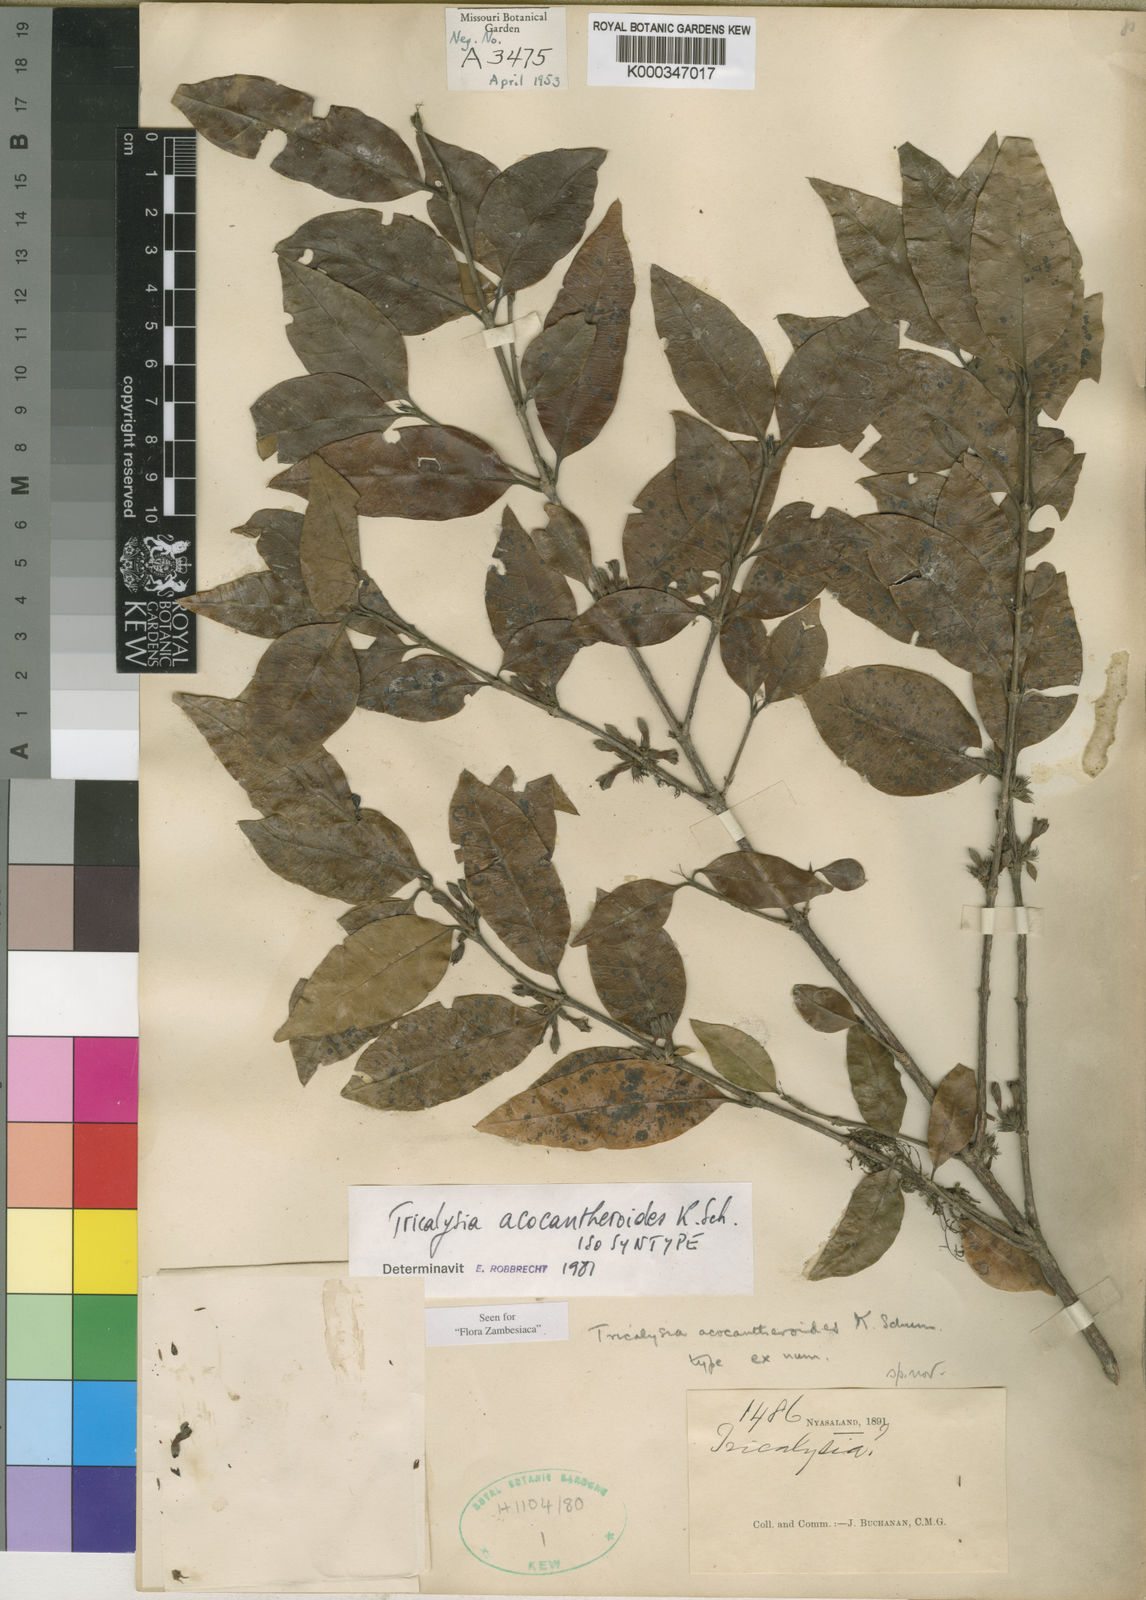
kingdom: Plantae
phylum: Tracheophyta
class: Magnoliopsida
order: Gentianales
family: Rubiaceae
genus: Tricalysia
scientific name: Tricalysia acocantheroides
